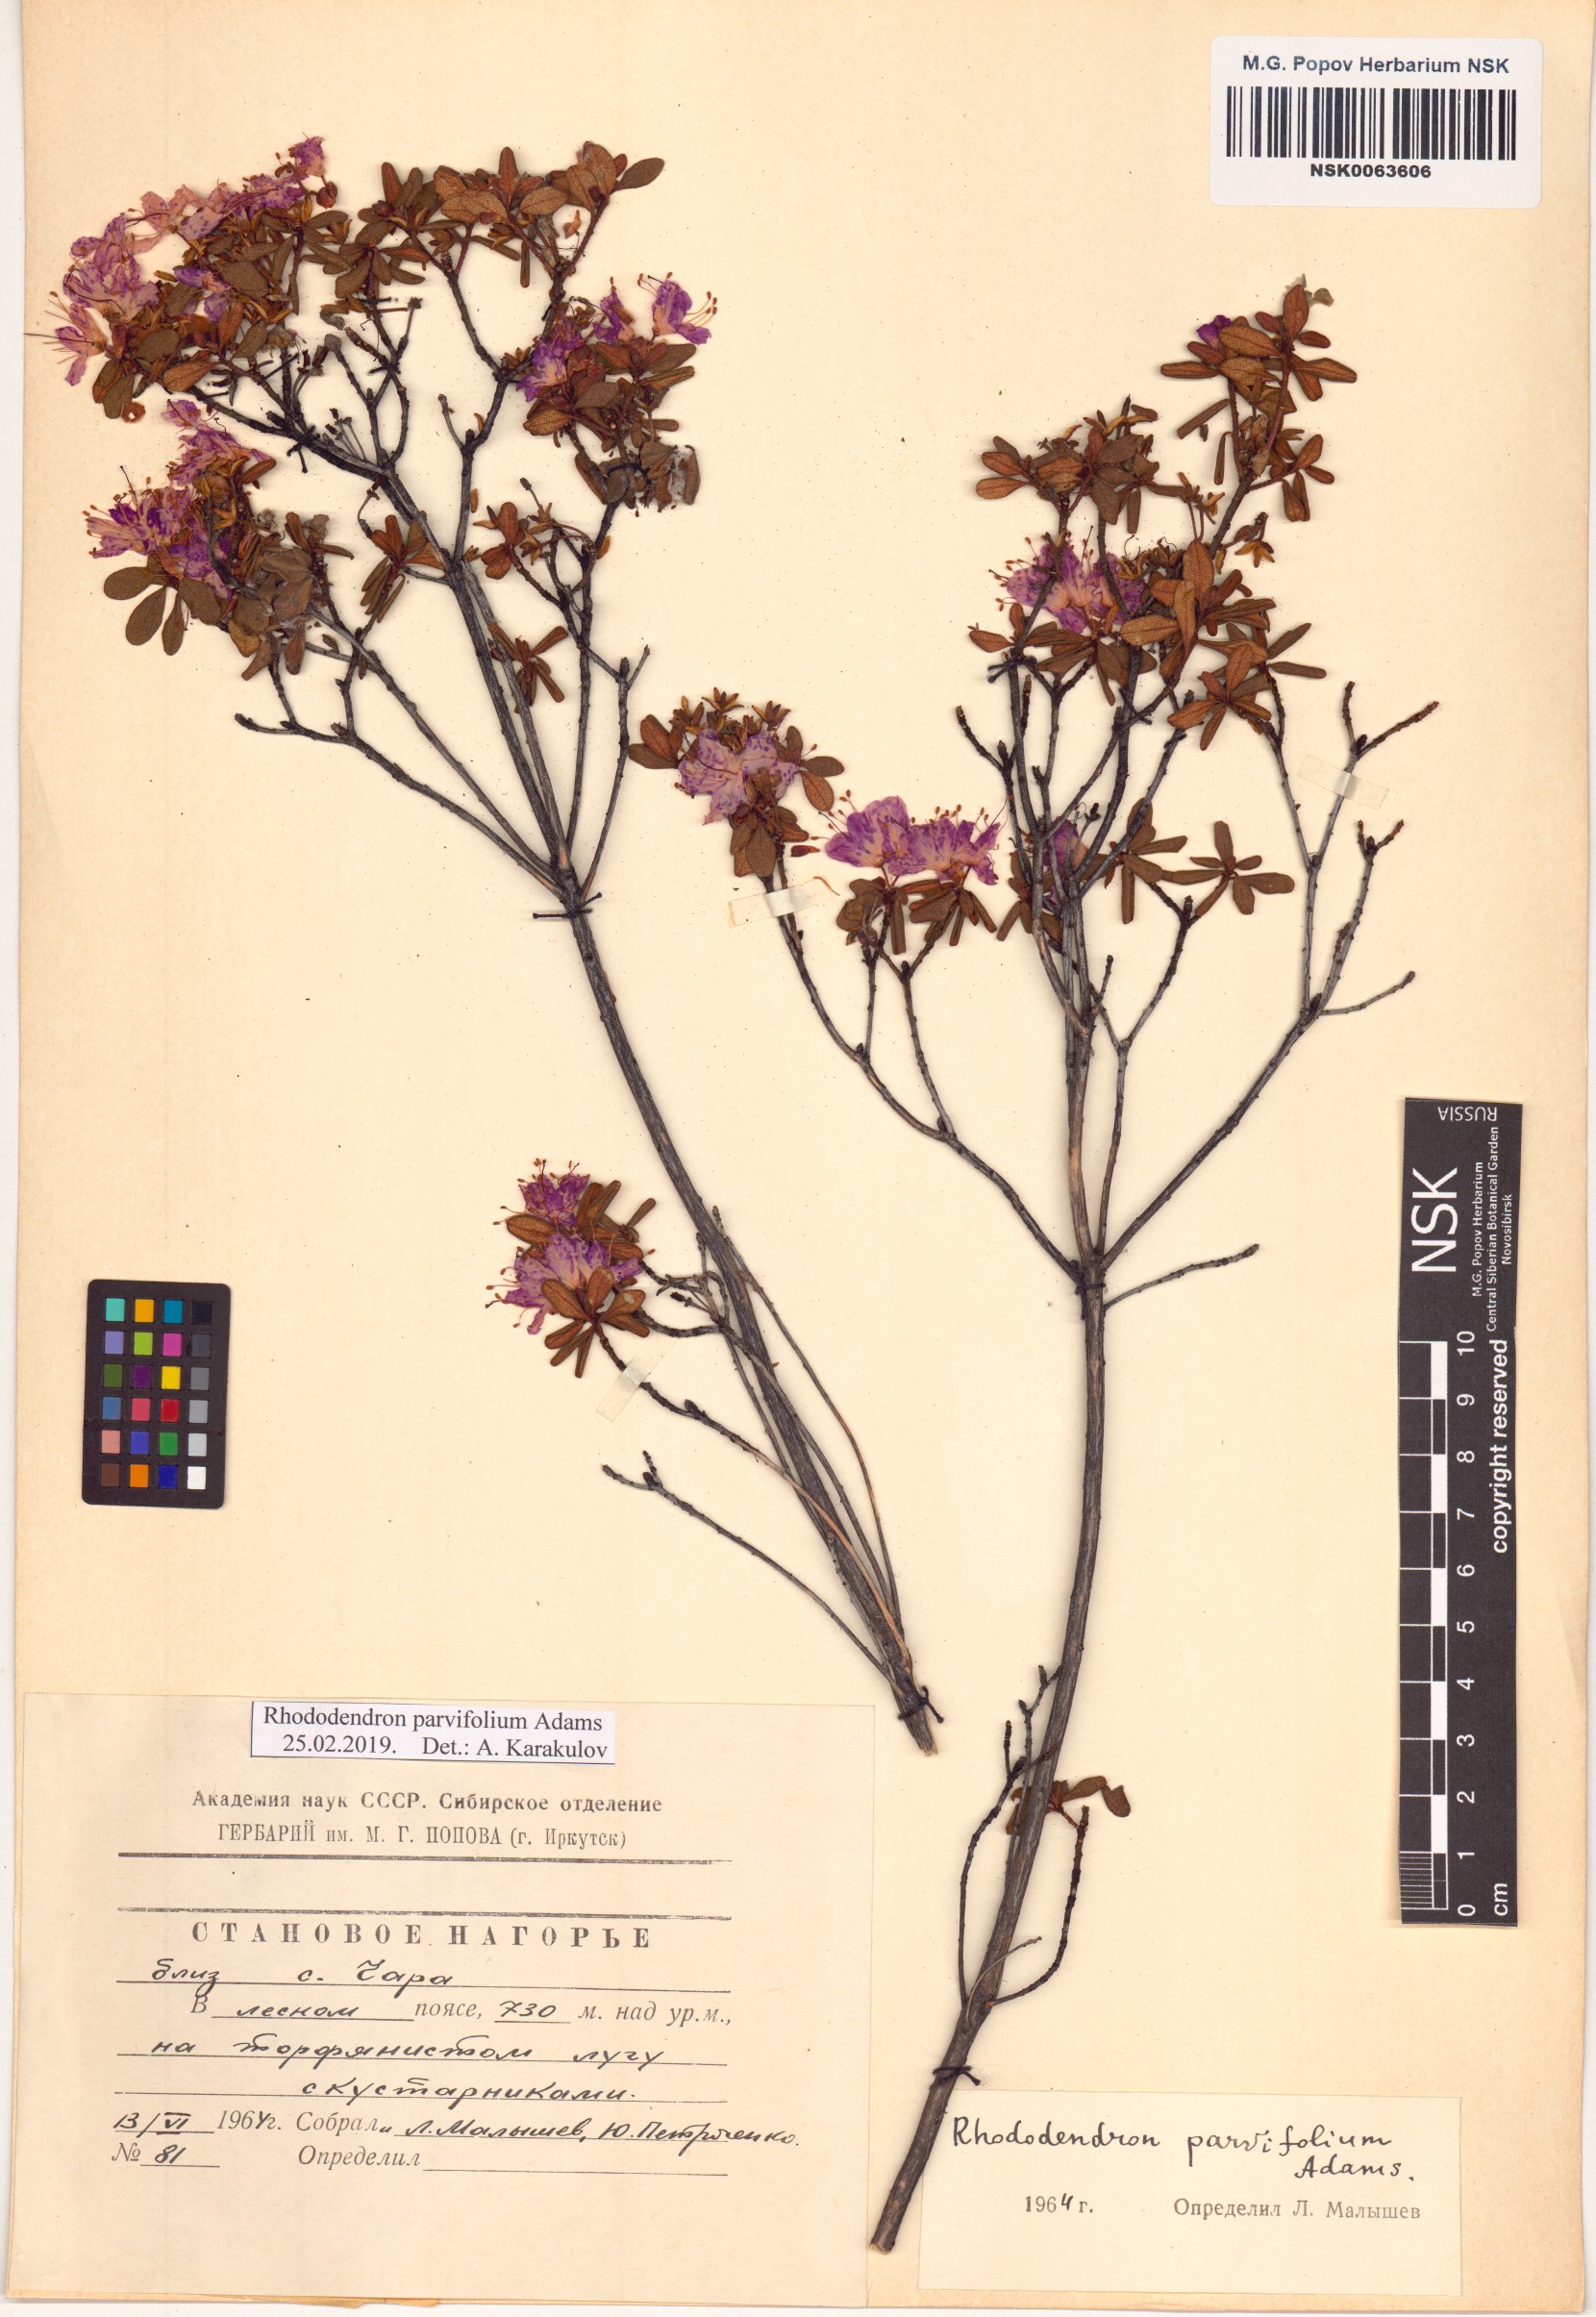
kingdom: Plantae
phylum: Tracheophyta
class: Magnoliopsida
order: Ericales
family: Ericaceae
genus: Rhododendron
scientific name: Rhododendron parvifolium
